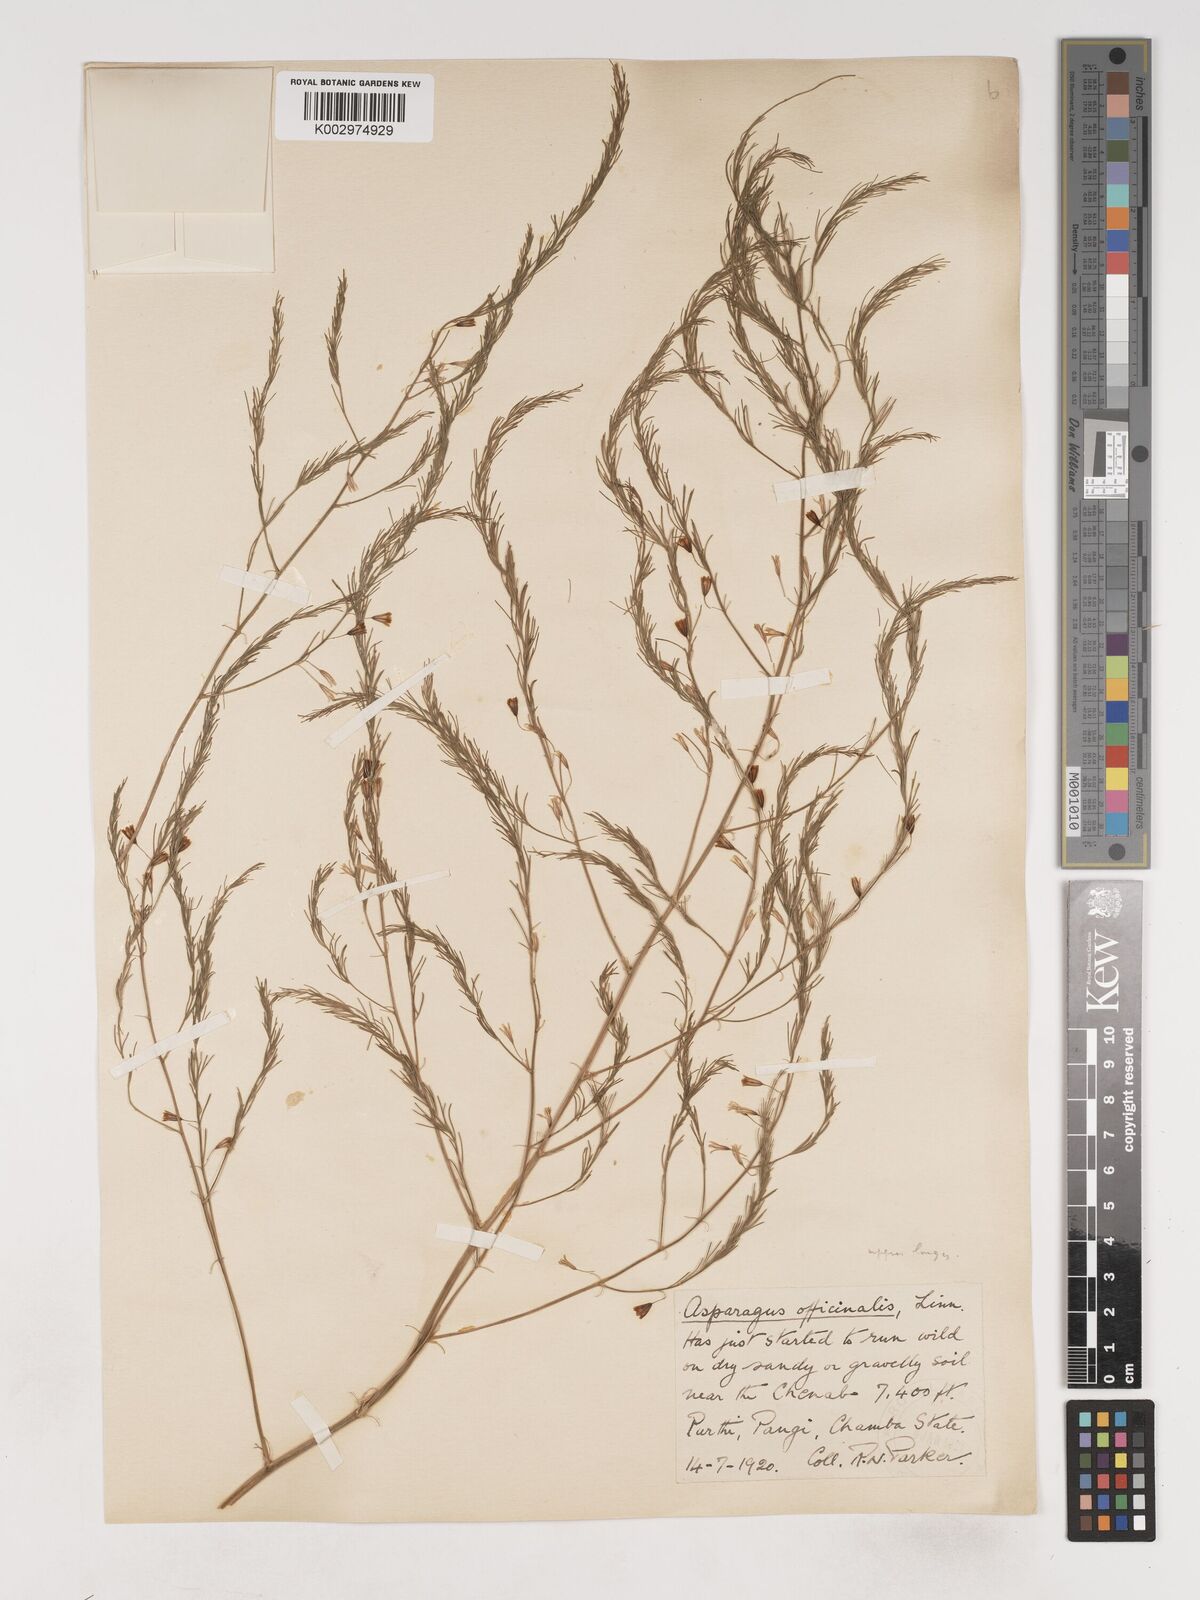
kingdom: Plantae
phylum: Tracheophyta
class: Liliopsida
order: Asparagales
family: Asparagaceae
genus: Asparagus
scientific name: Asparagus officinalis
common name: Garden asparagus
